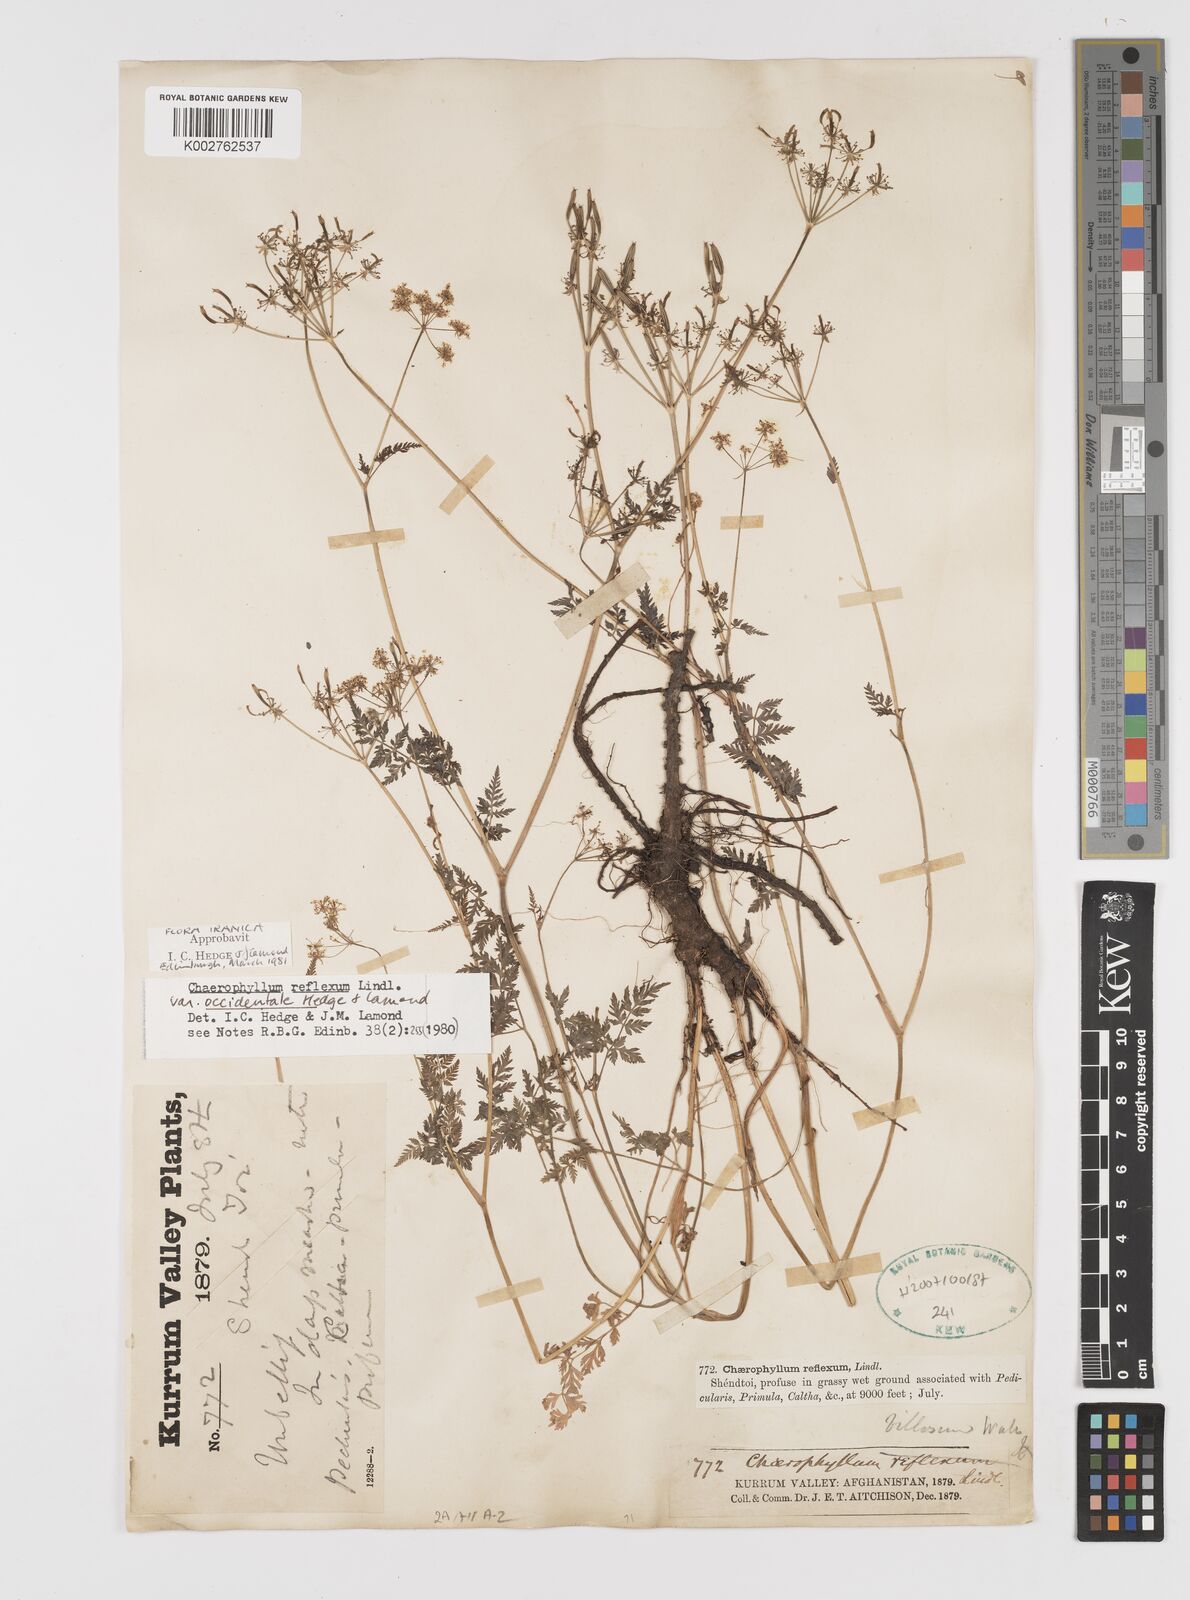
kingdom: Plantae
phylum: Tracheophyta
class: Magnoliopsida
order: Apiales
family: Apiaceae
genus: Chaerophyllum
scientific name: Chaerophyllum reflexum
